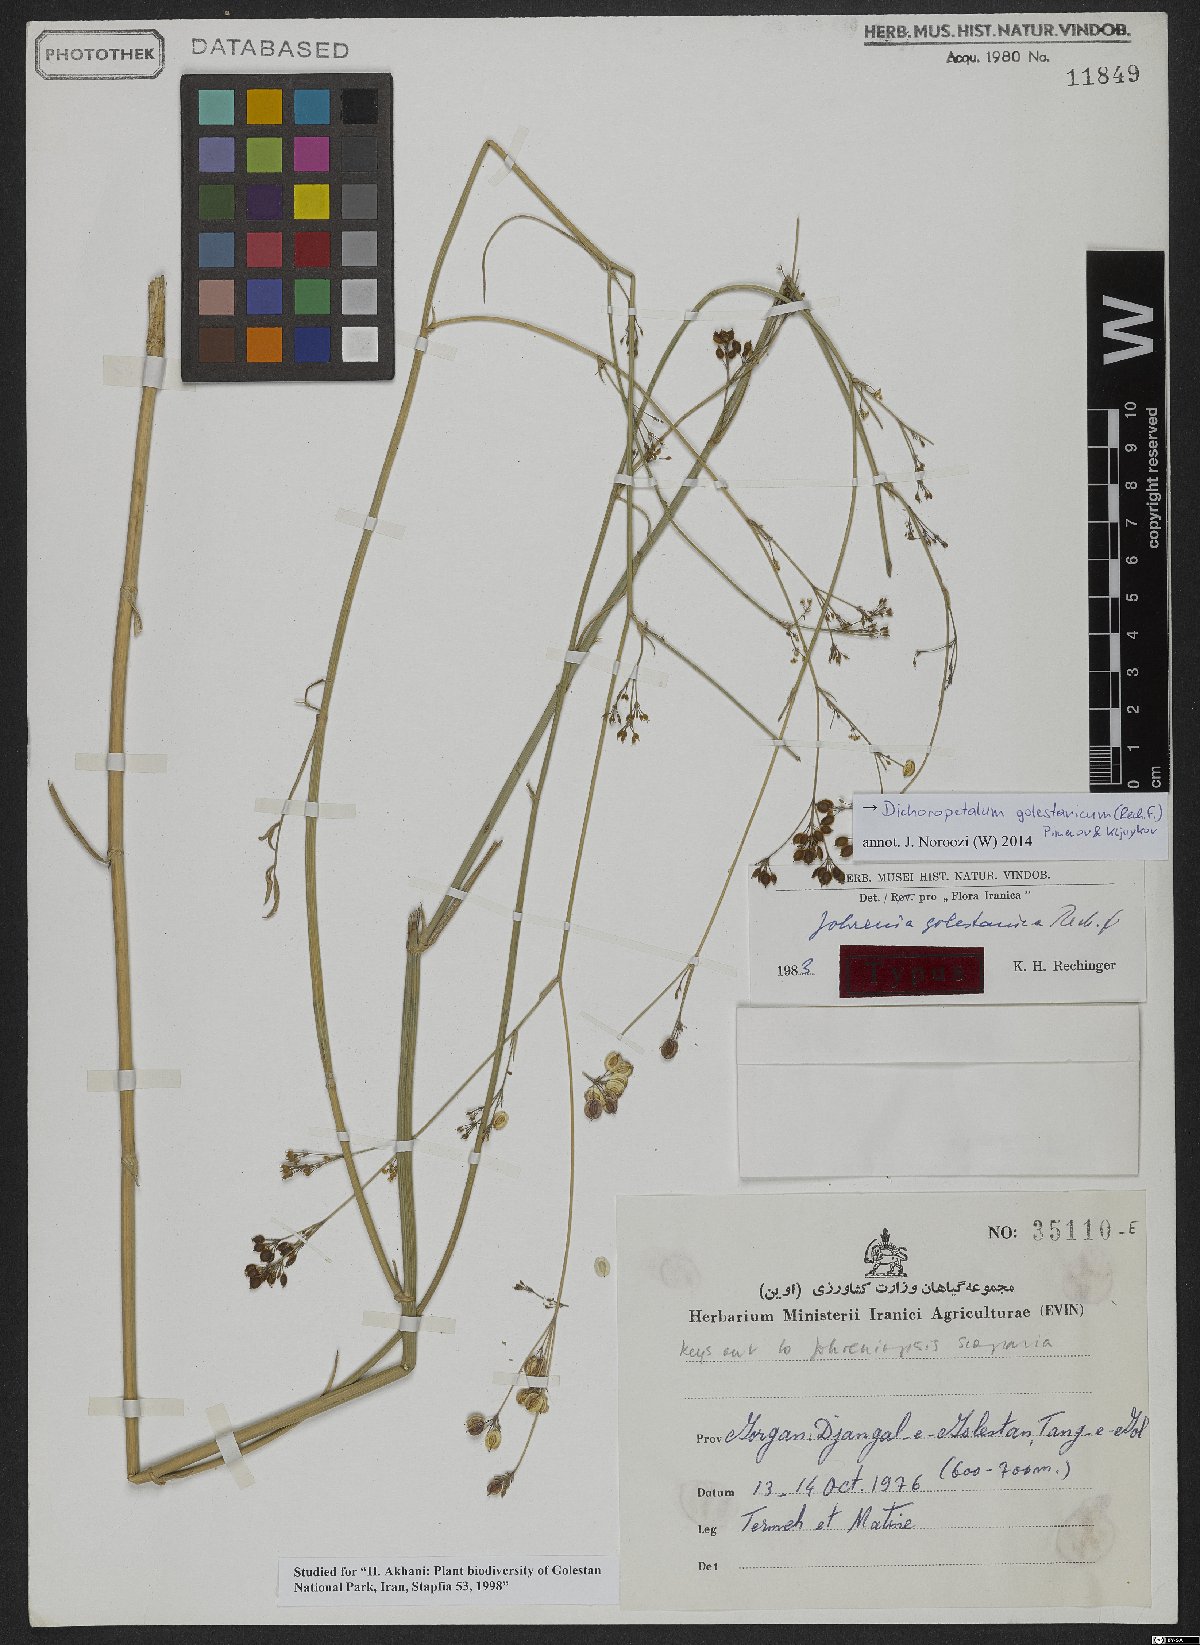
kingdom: Plantae
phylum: Tracheophyta
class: Magnoliopsida
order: Apiales
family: Apiaceae
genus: Dichoropetalum
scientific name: Dichoropetalum golestanicum
